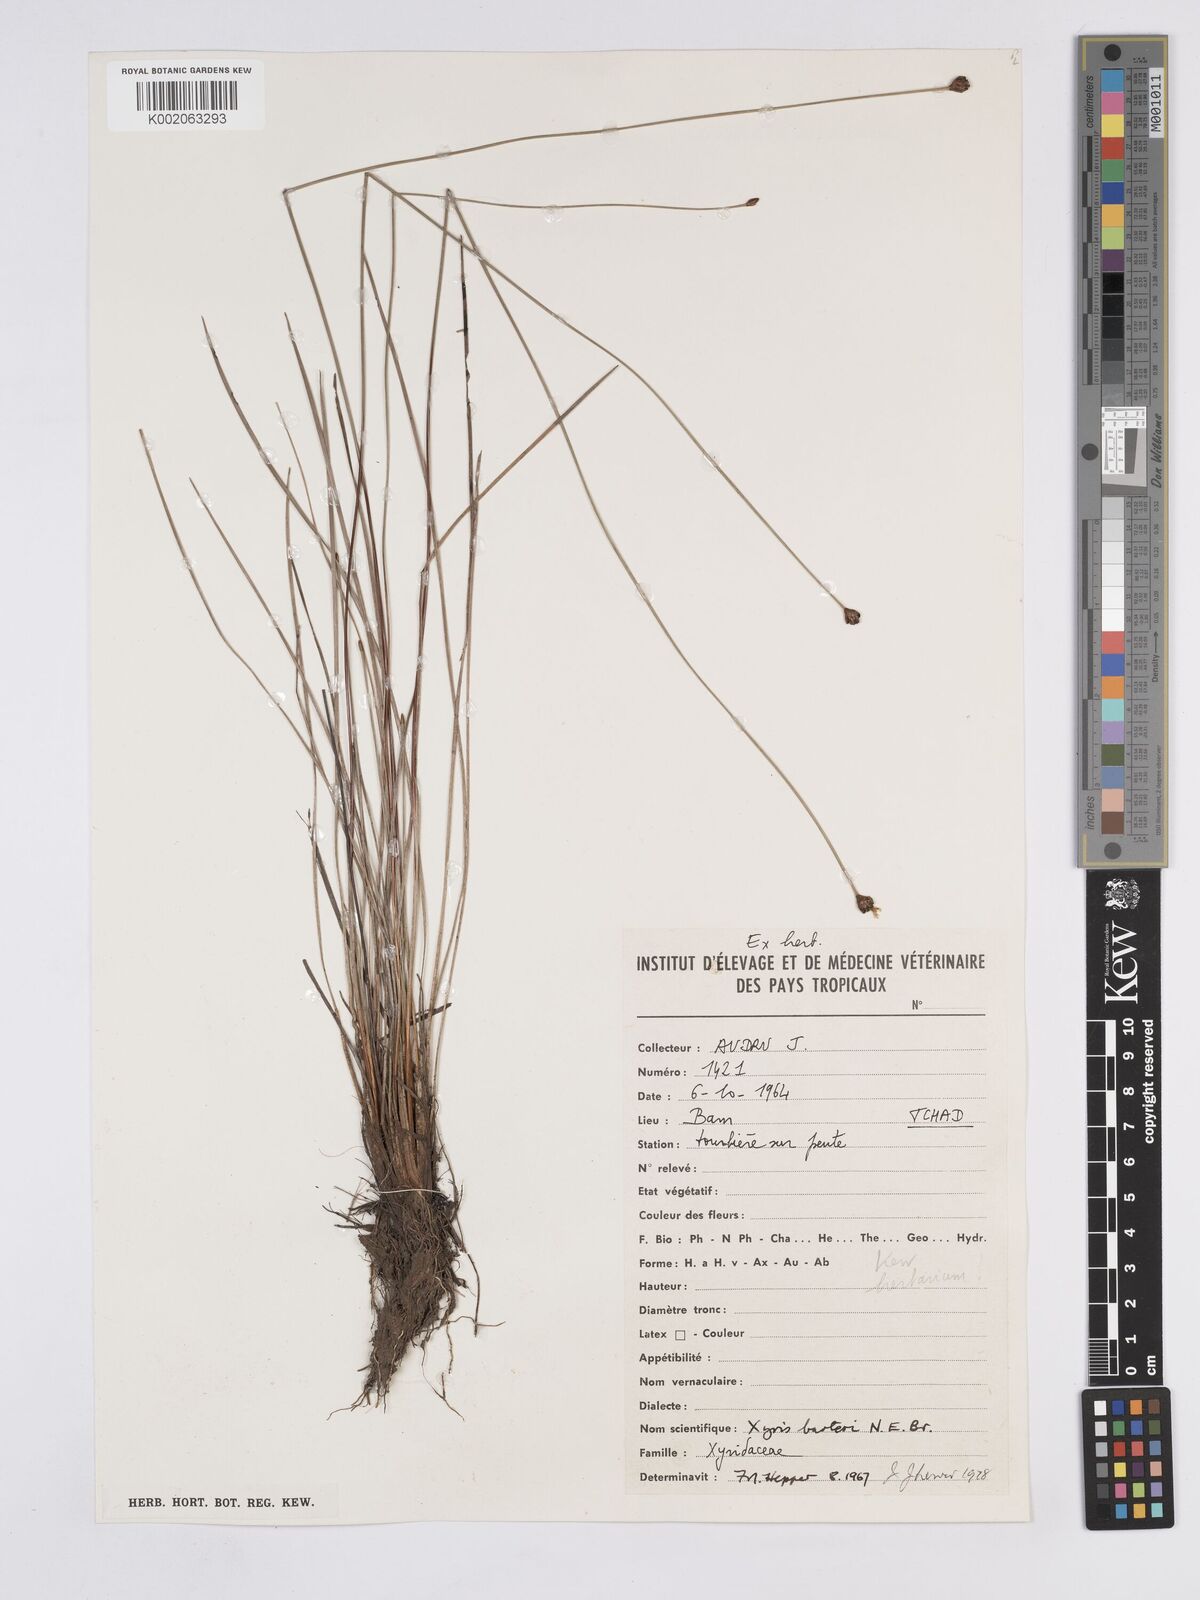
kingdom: Plantae
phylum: Tracheophyta
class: Liliopsida
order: Poales
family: Xyridaceae
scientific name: Xyridaceae
